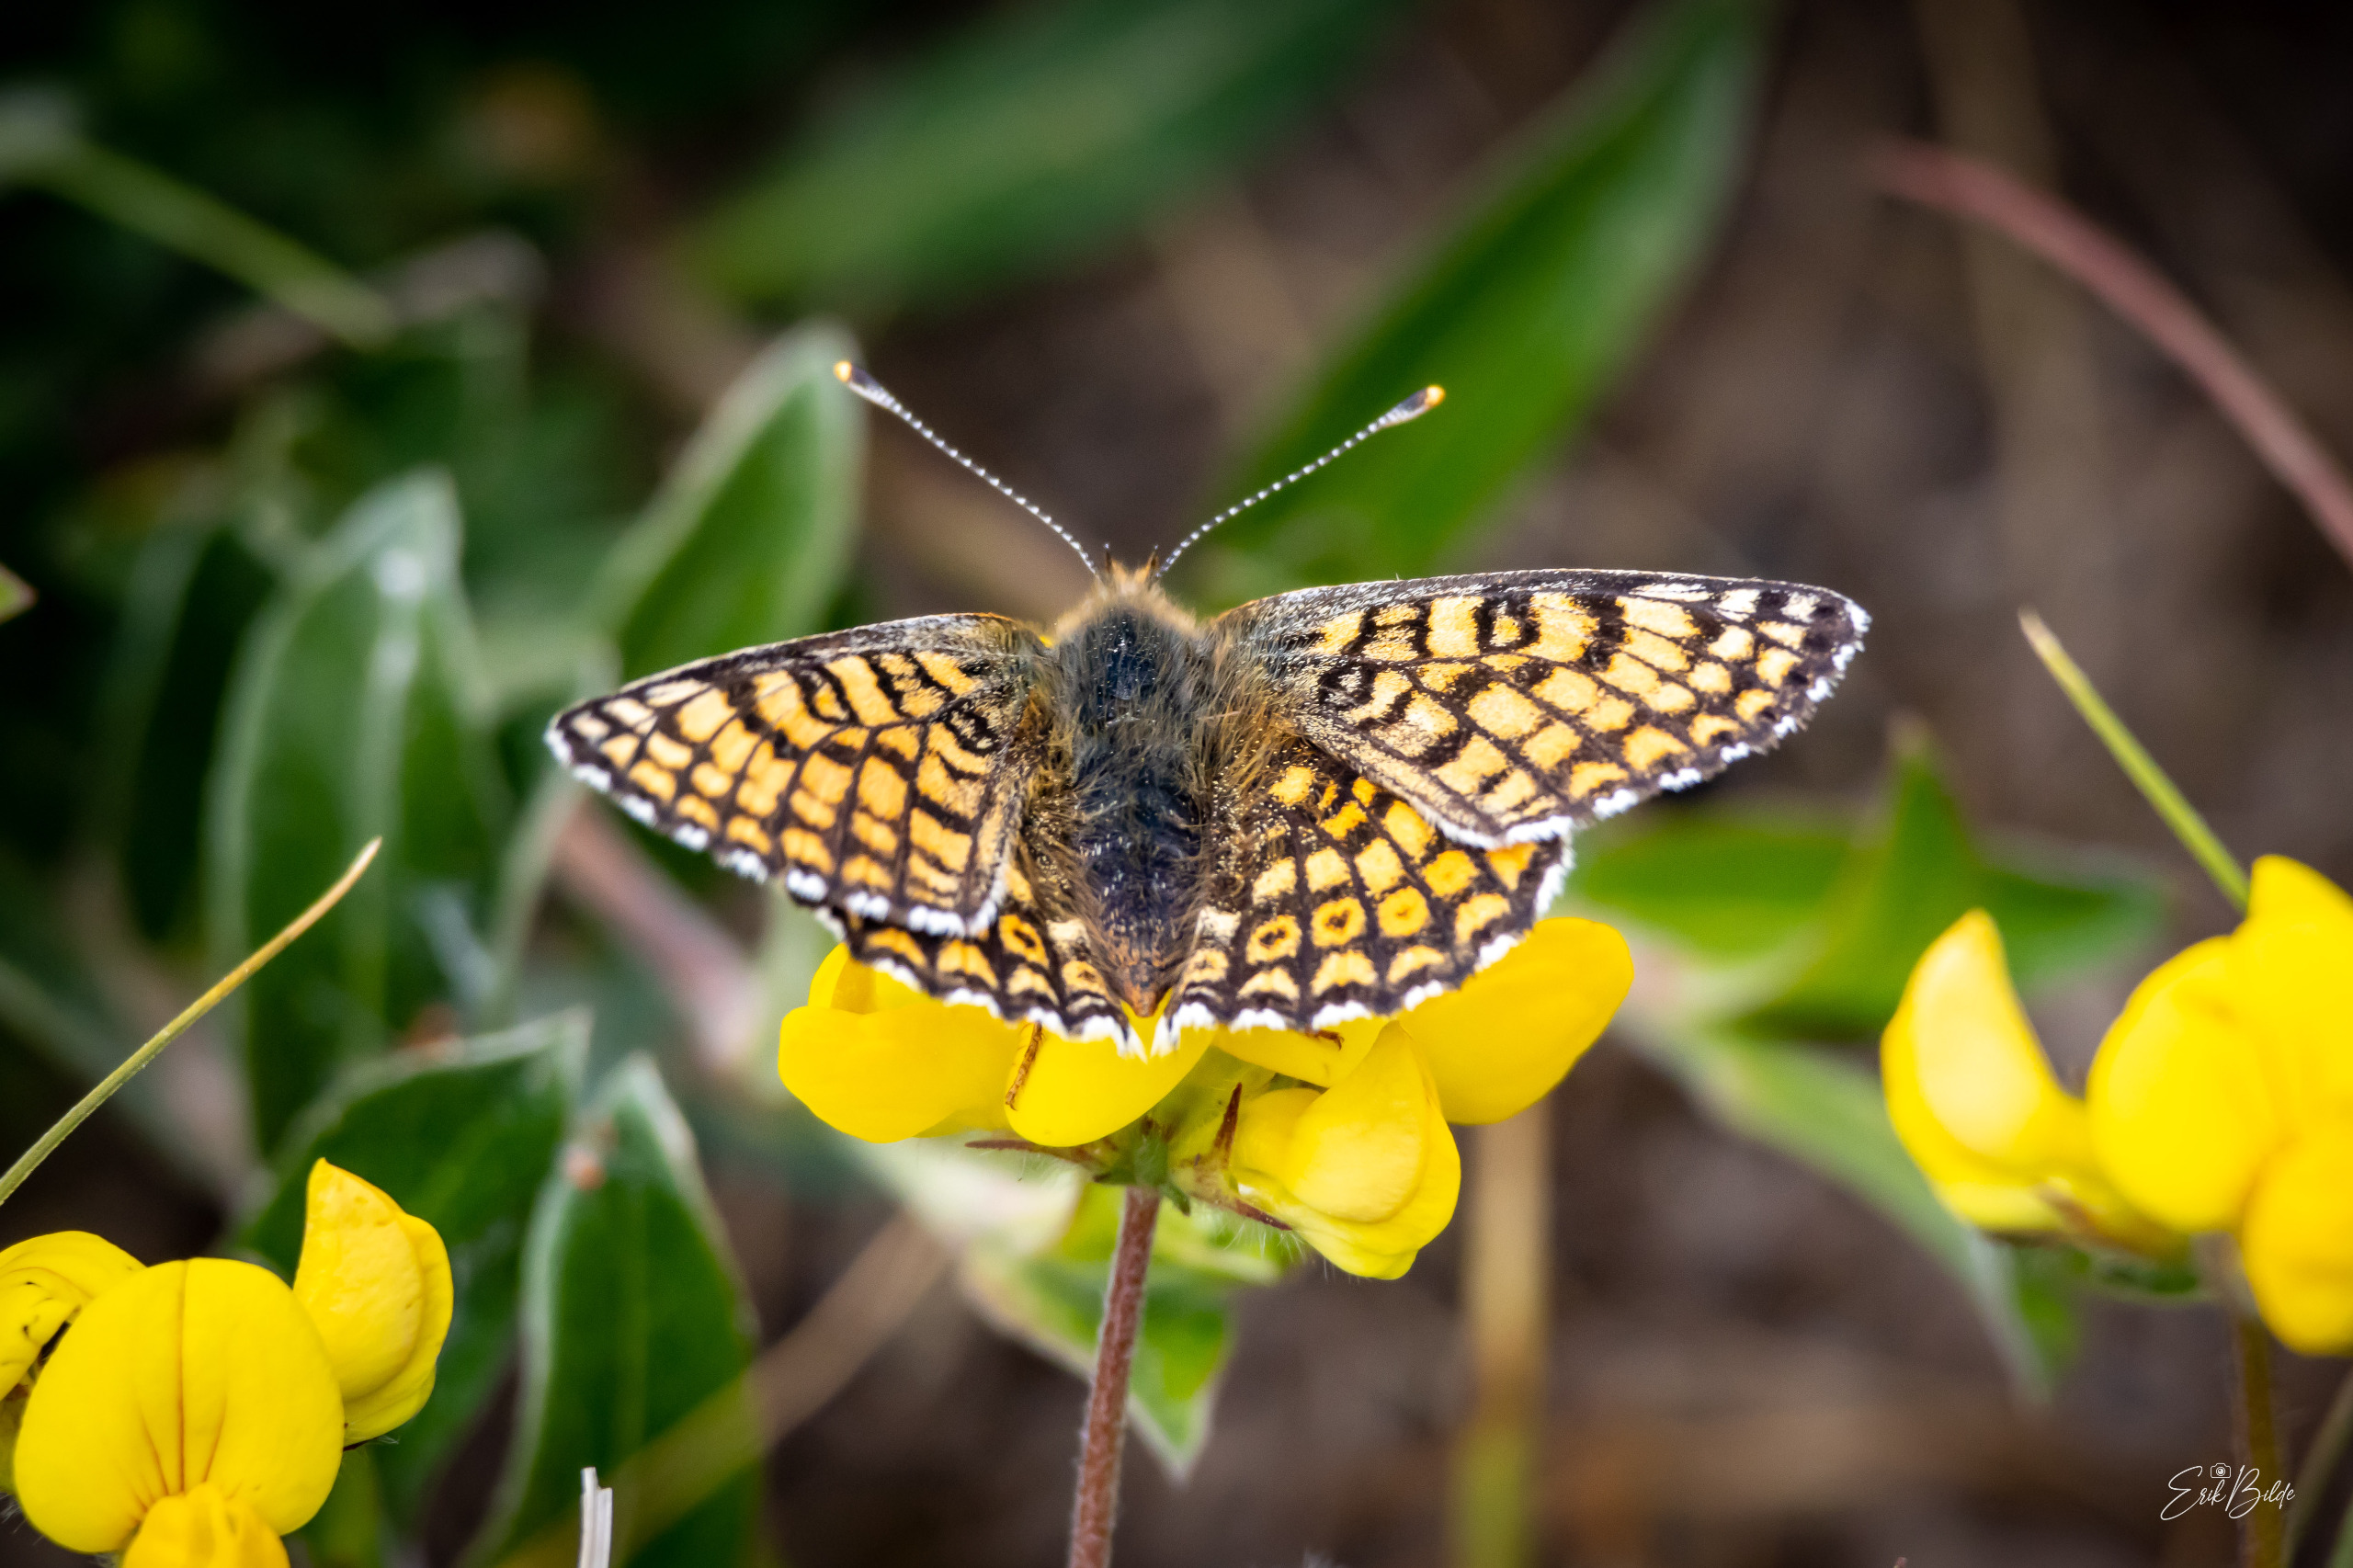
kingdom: Animalia
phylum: Arthropoda
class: Insecta
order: Lepidoptera
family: Nymphalidae
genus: Melitaea
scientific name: Melitaea cinxia
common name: Okkergul pletvinge
